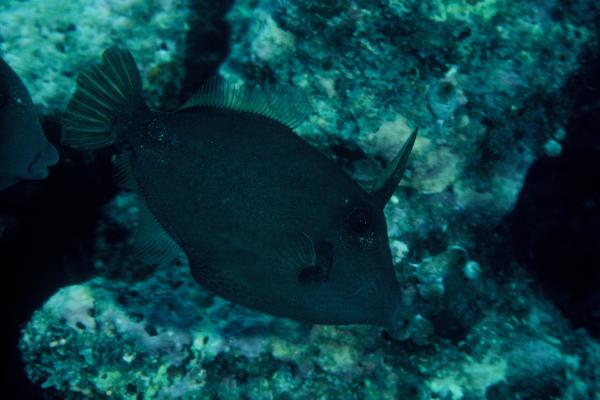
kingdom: Animalia
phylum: Chordata
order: Tetraodontiformes
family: Monacanthidae
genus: Cantherhines
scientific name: Cantherhines pardalis
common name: Honeycomb filefish
